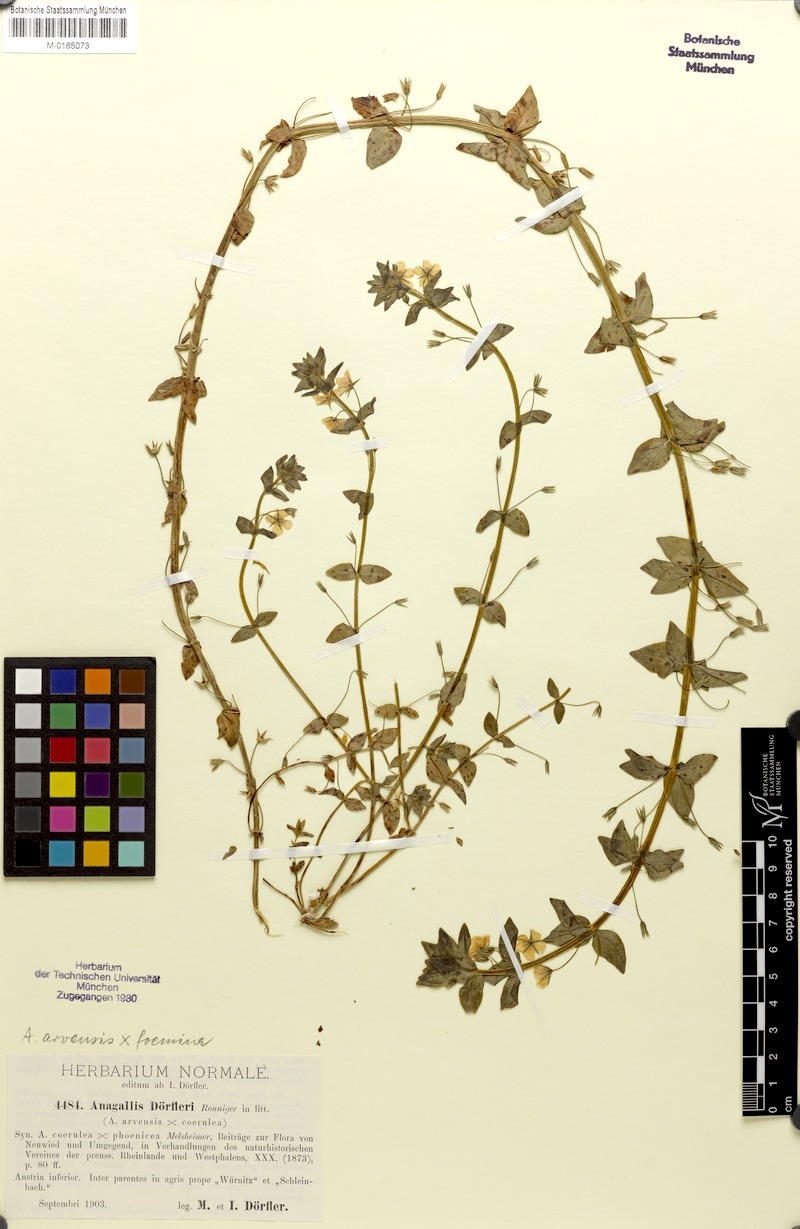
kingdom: Plantae
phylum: Tracheophyta
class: Magnoliopsida
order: Ericales
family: Primulaceae
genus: Lysimachia
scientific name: Lysimachia foemina
